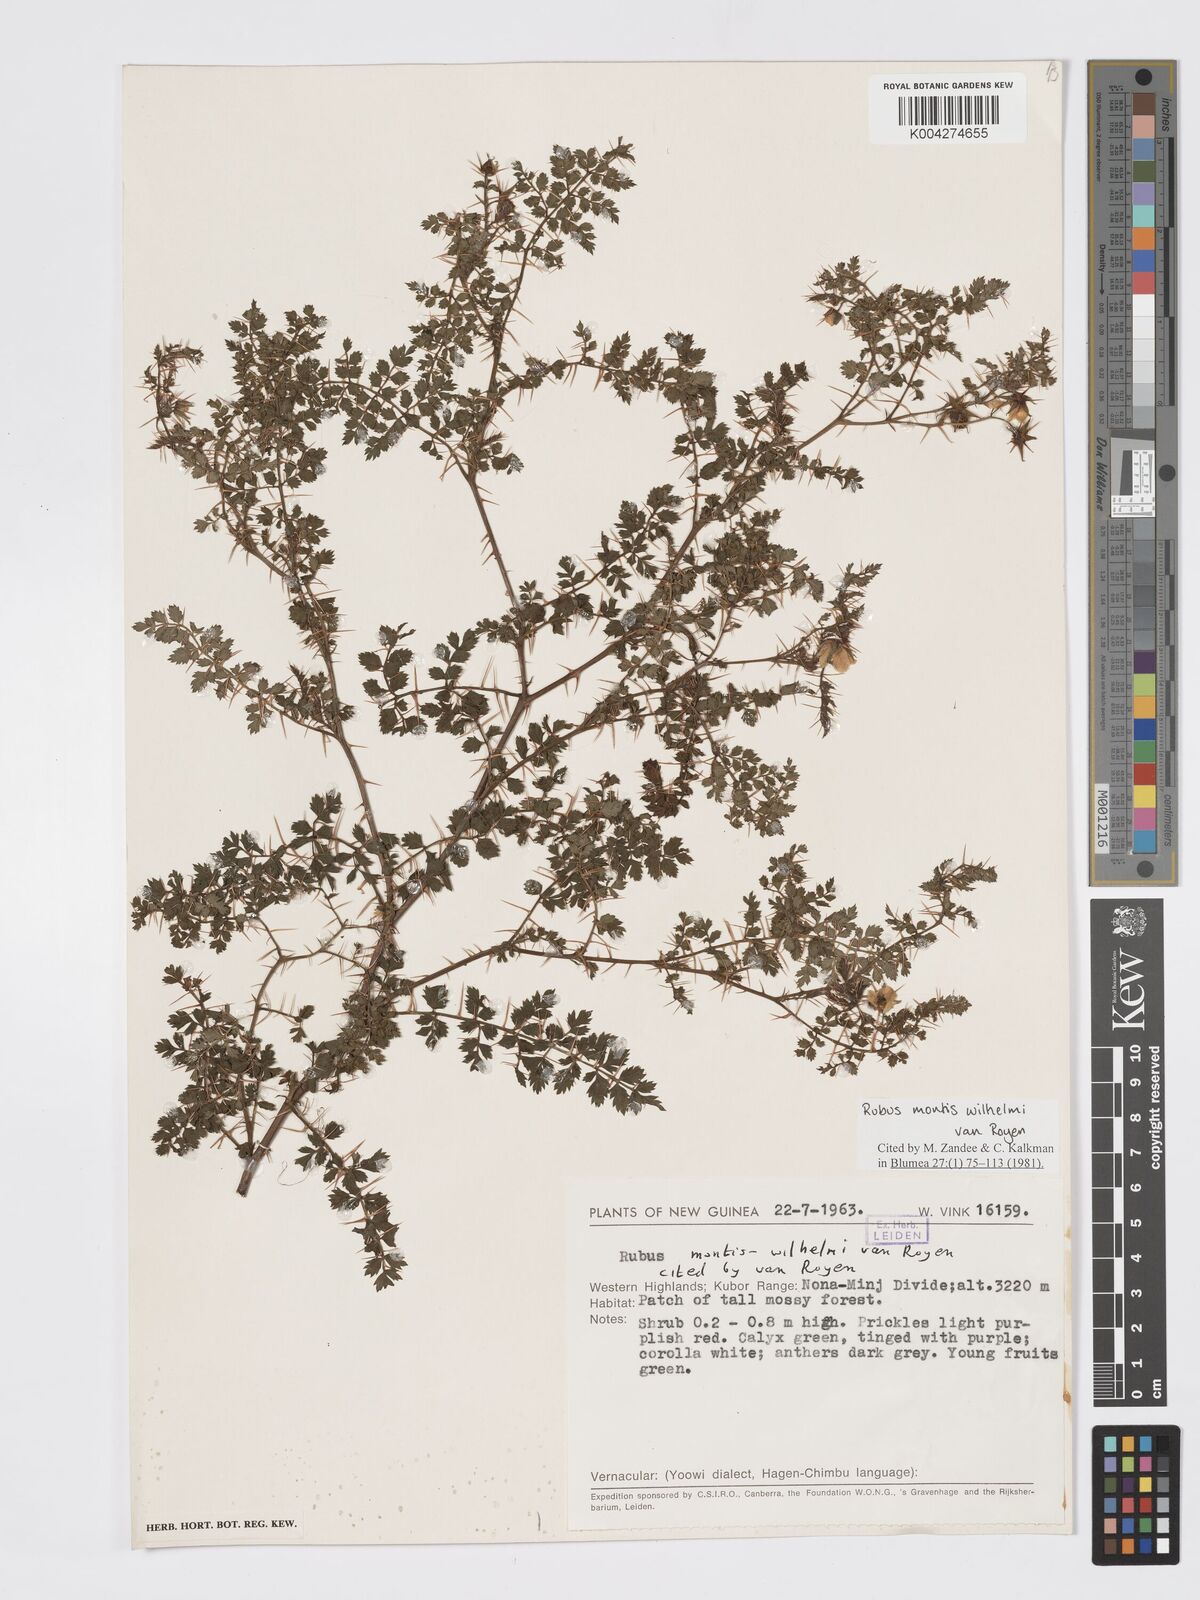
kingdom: Plantae
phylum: Tracheophyta
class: Magnoliopsida
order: Rosales
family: Rosaceae
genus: Rubus
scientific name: Rubus montis-wilhelmii
